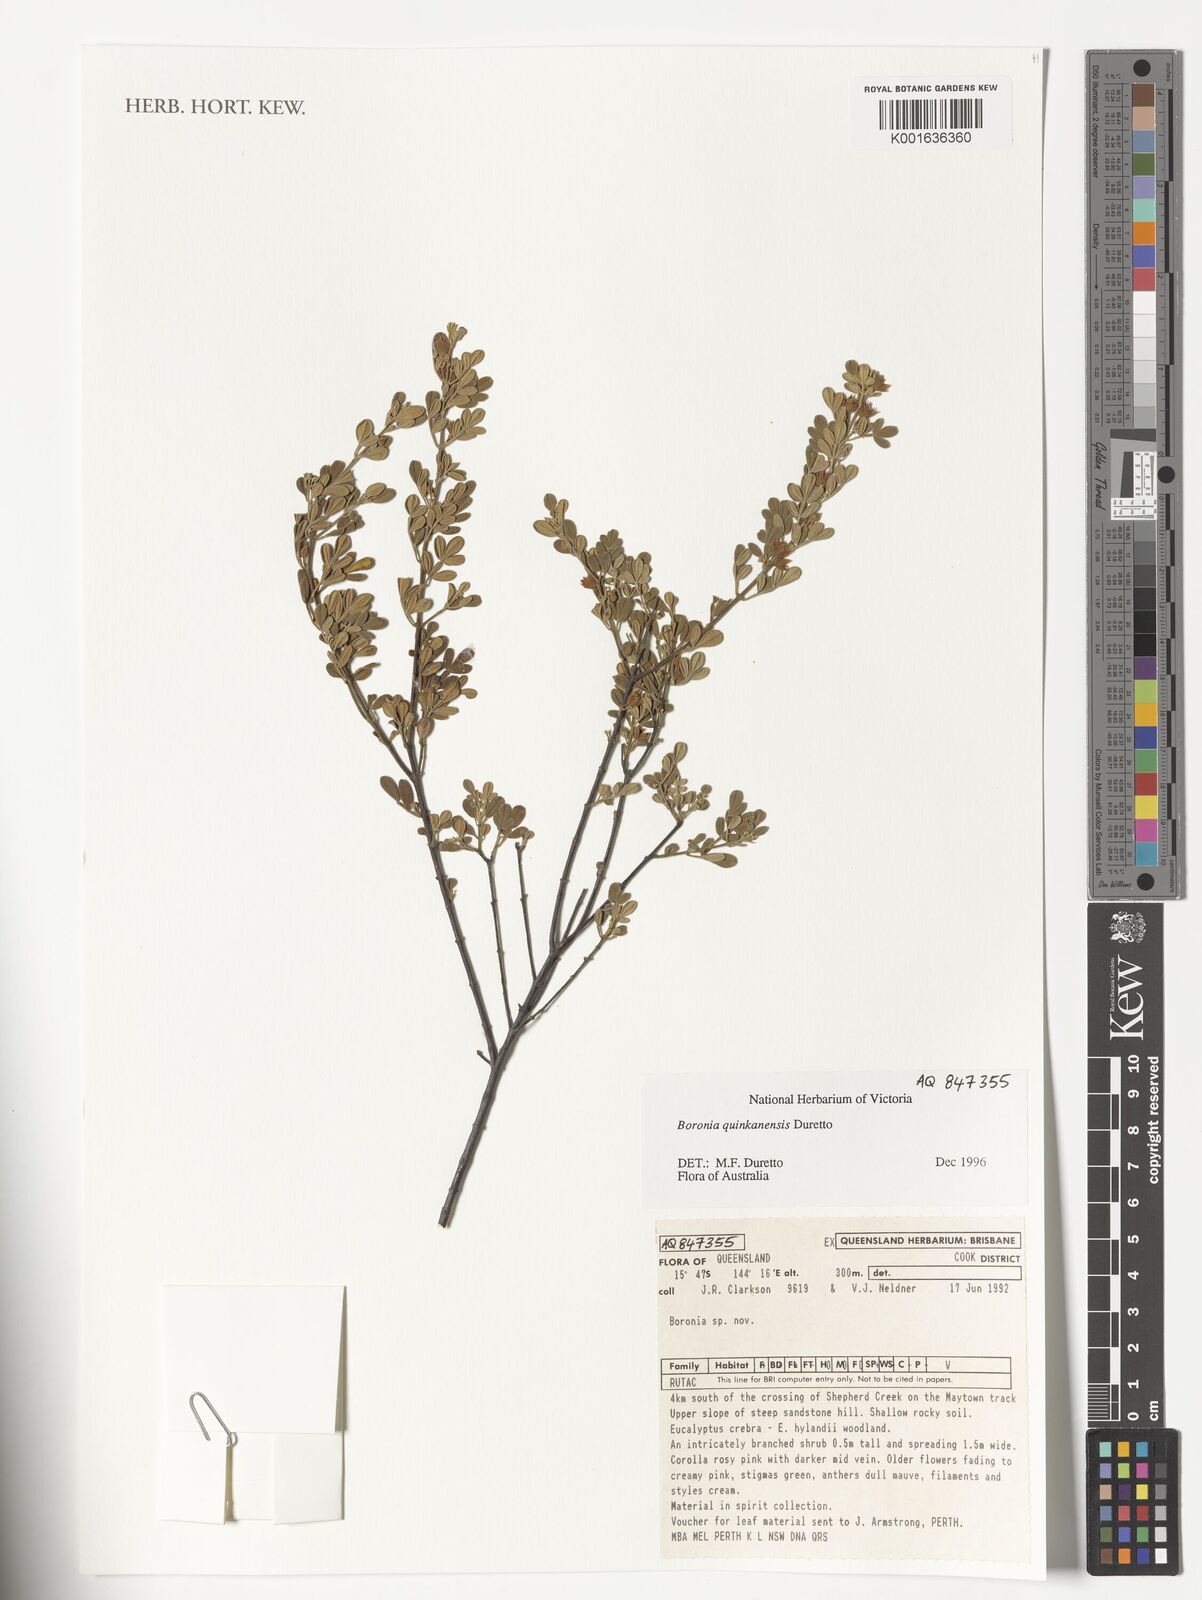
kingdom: Plantae
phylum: Tracheophyta
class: Magnoliopsida
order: Sapindales
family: Rutaceae
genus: Boronia
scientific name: Boronia quinkanensis
